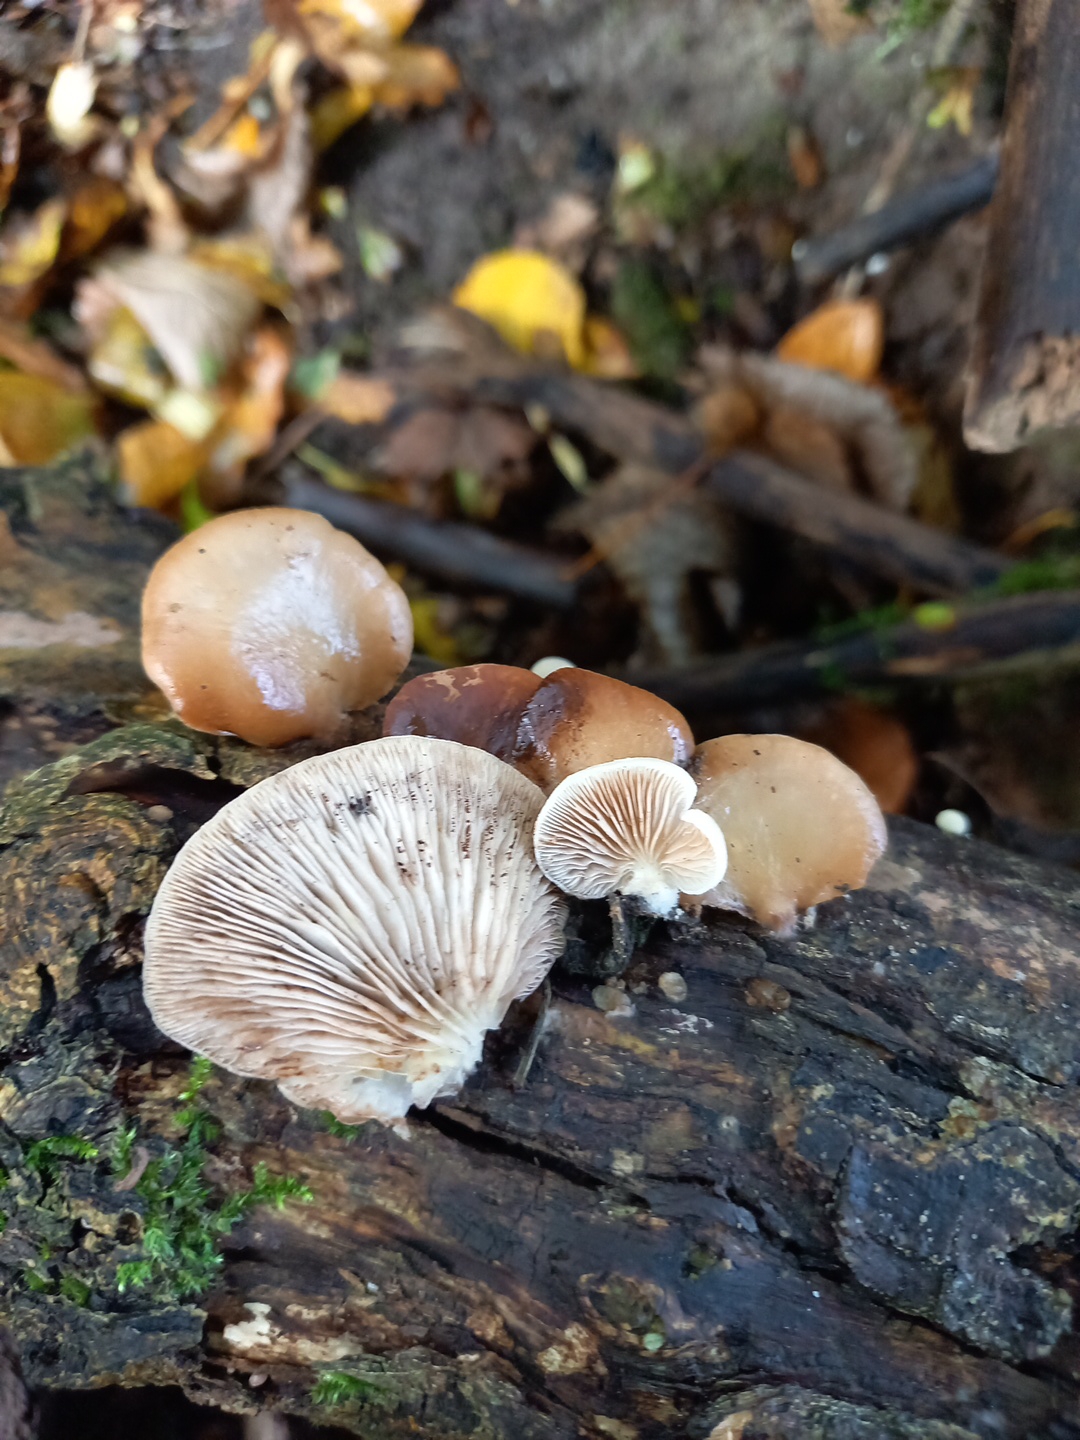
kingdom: Fungi
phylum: Basidiomycota
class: Agaricomycetes
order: Agaricales
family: Crepidotaceae
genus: Crepidotus
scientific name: Crepidotus mollis
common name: blød muslingesvamp
